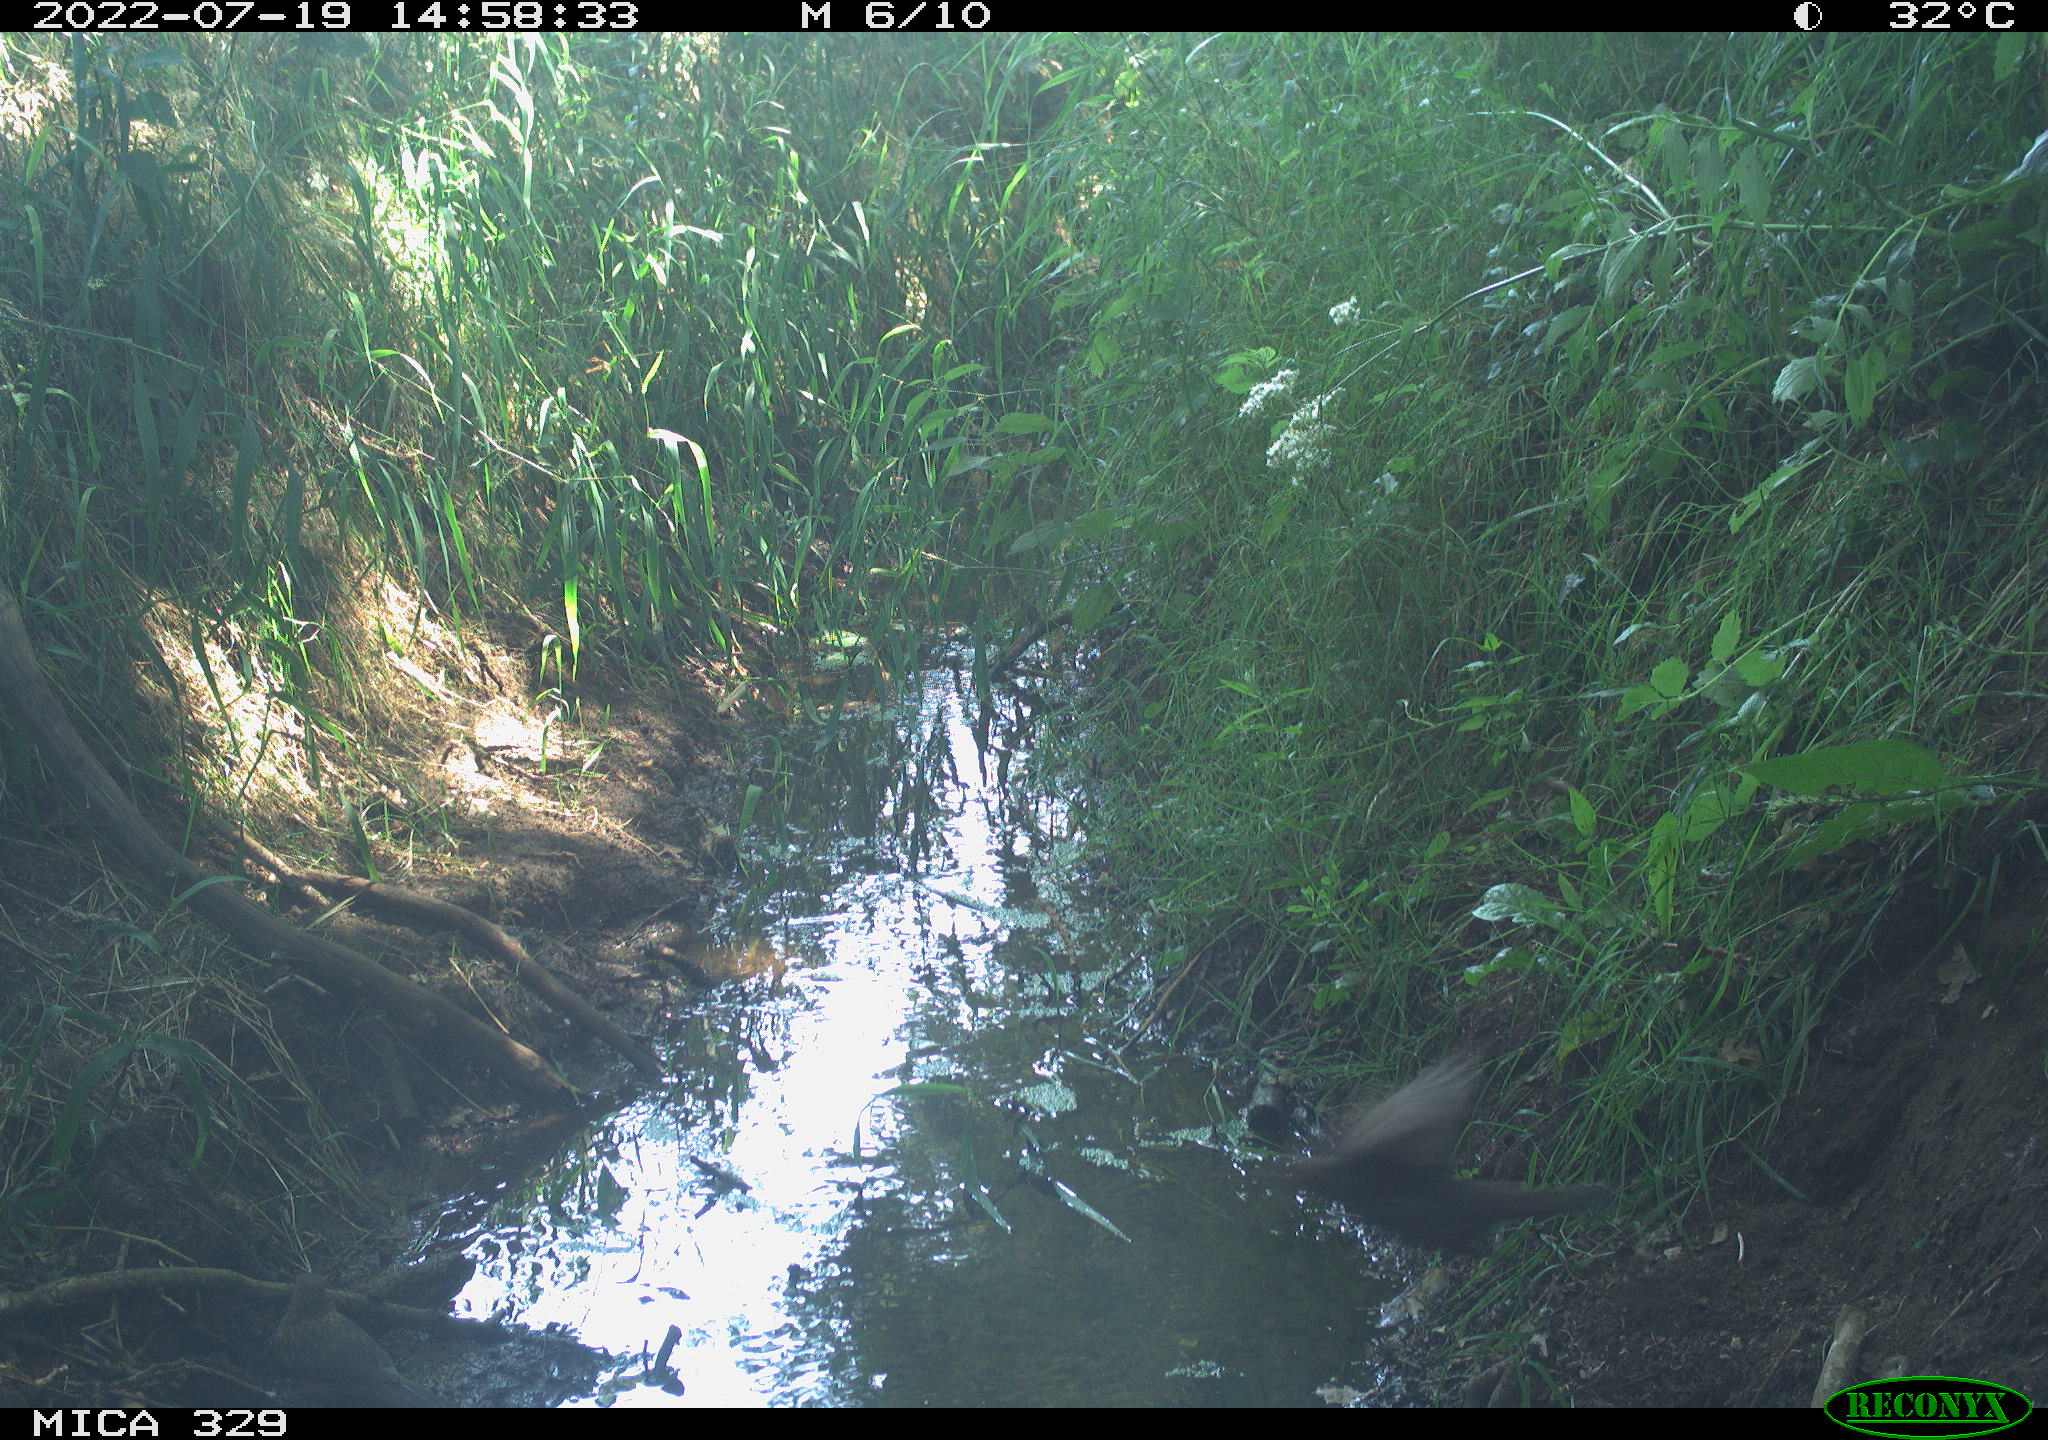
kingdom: Animalia
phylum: Chordata
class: Aves
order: Passeriformes
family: Turdidae
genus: Turdus
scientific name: Turdus merula
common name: Common blackbird
